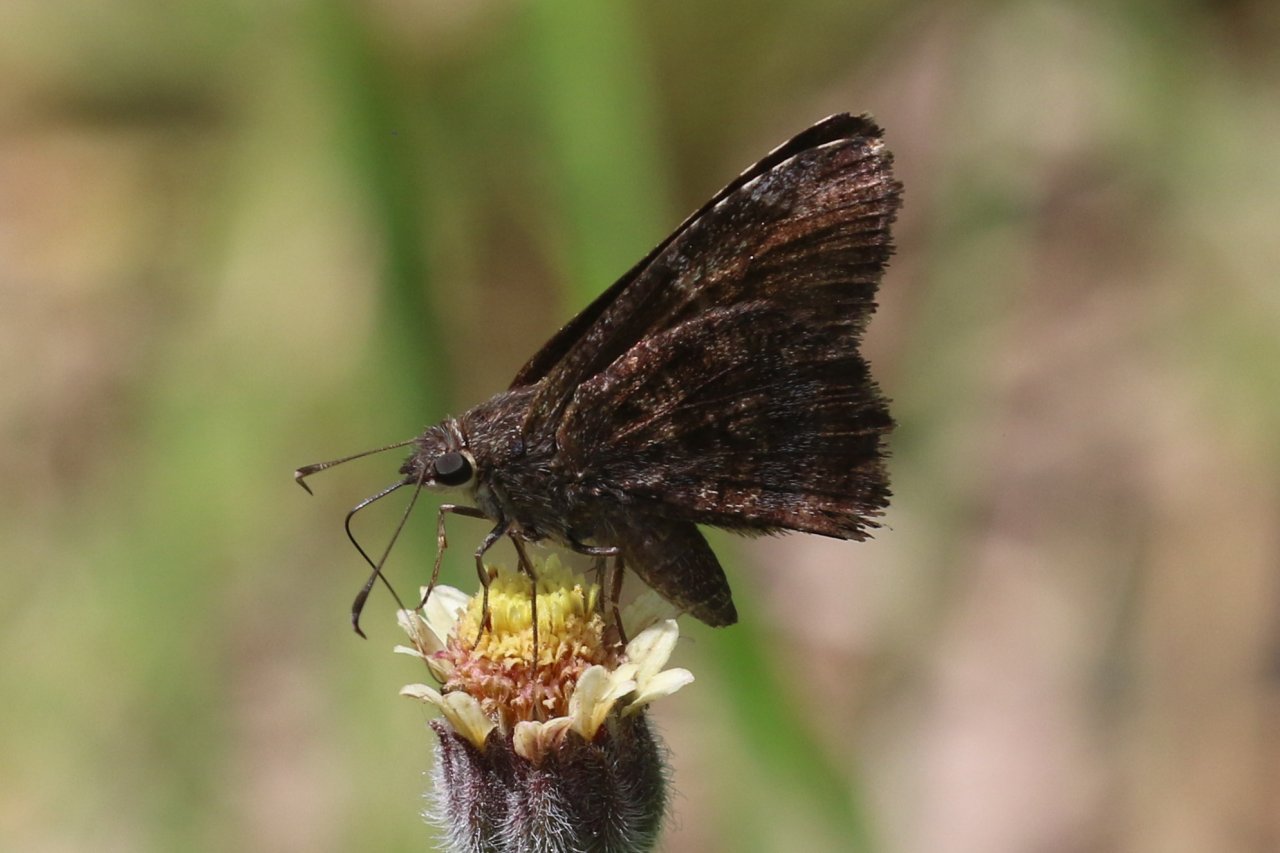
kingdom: Animalia
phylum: Arthropoda
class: Insecta
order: Lepidoptera
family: Hesperiidae
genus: Caicella
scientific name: Caicella calchas
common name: Mimosa Skipper
